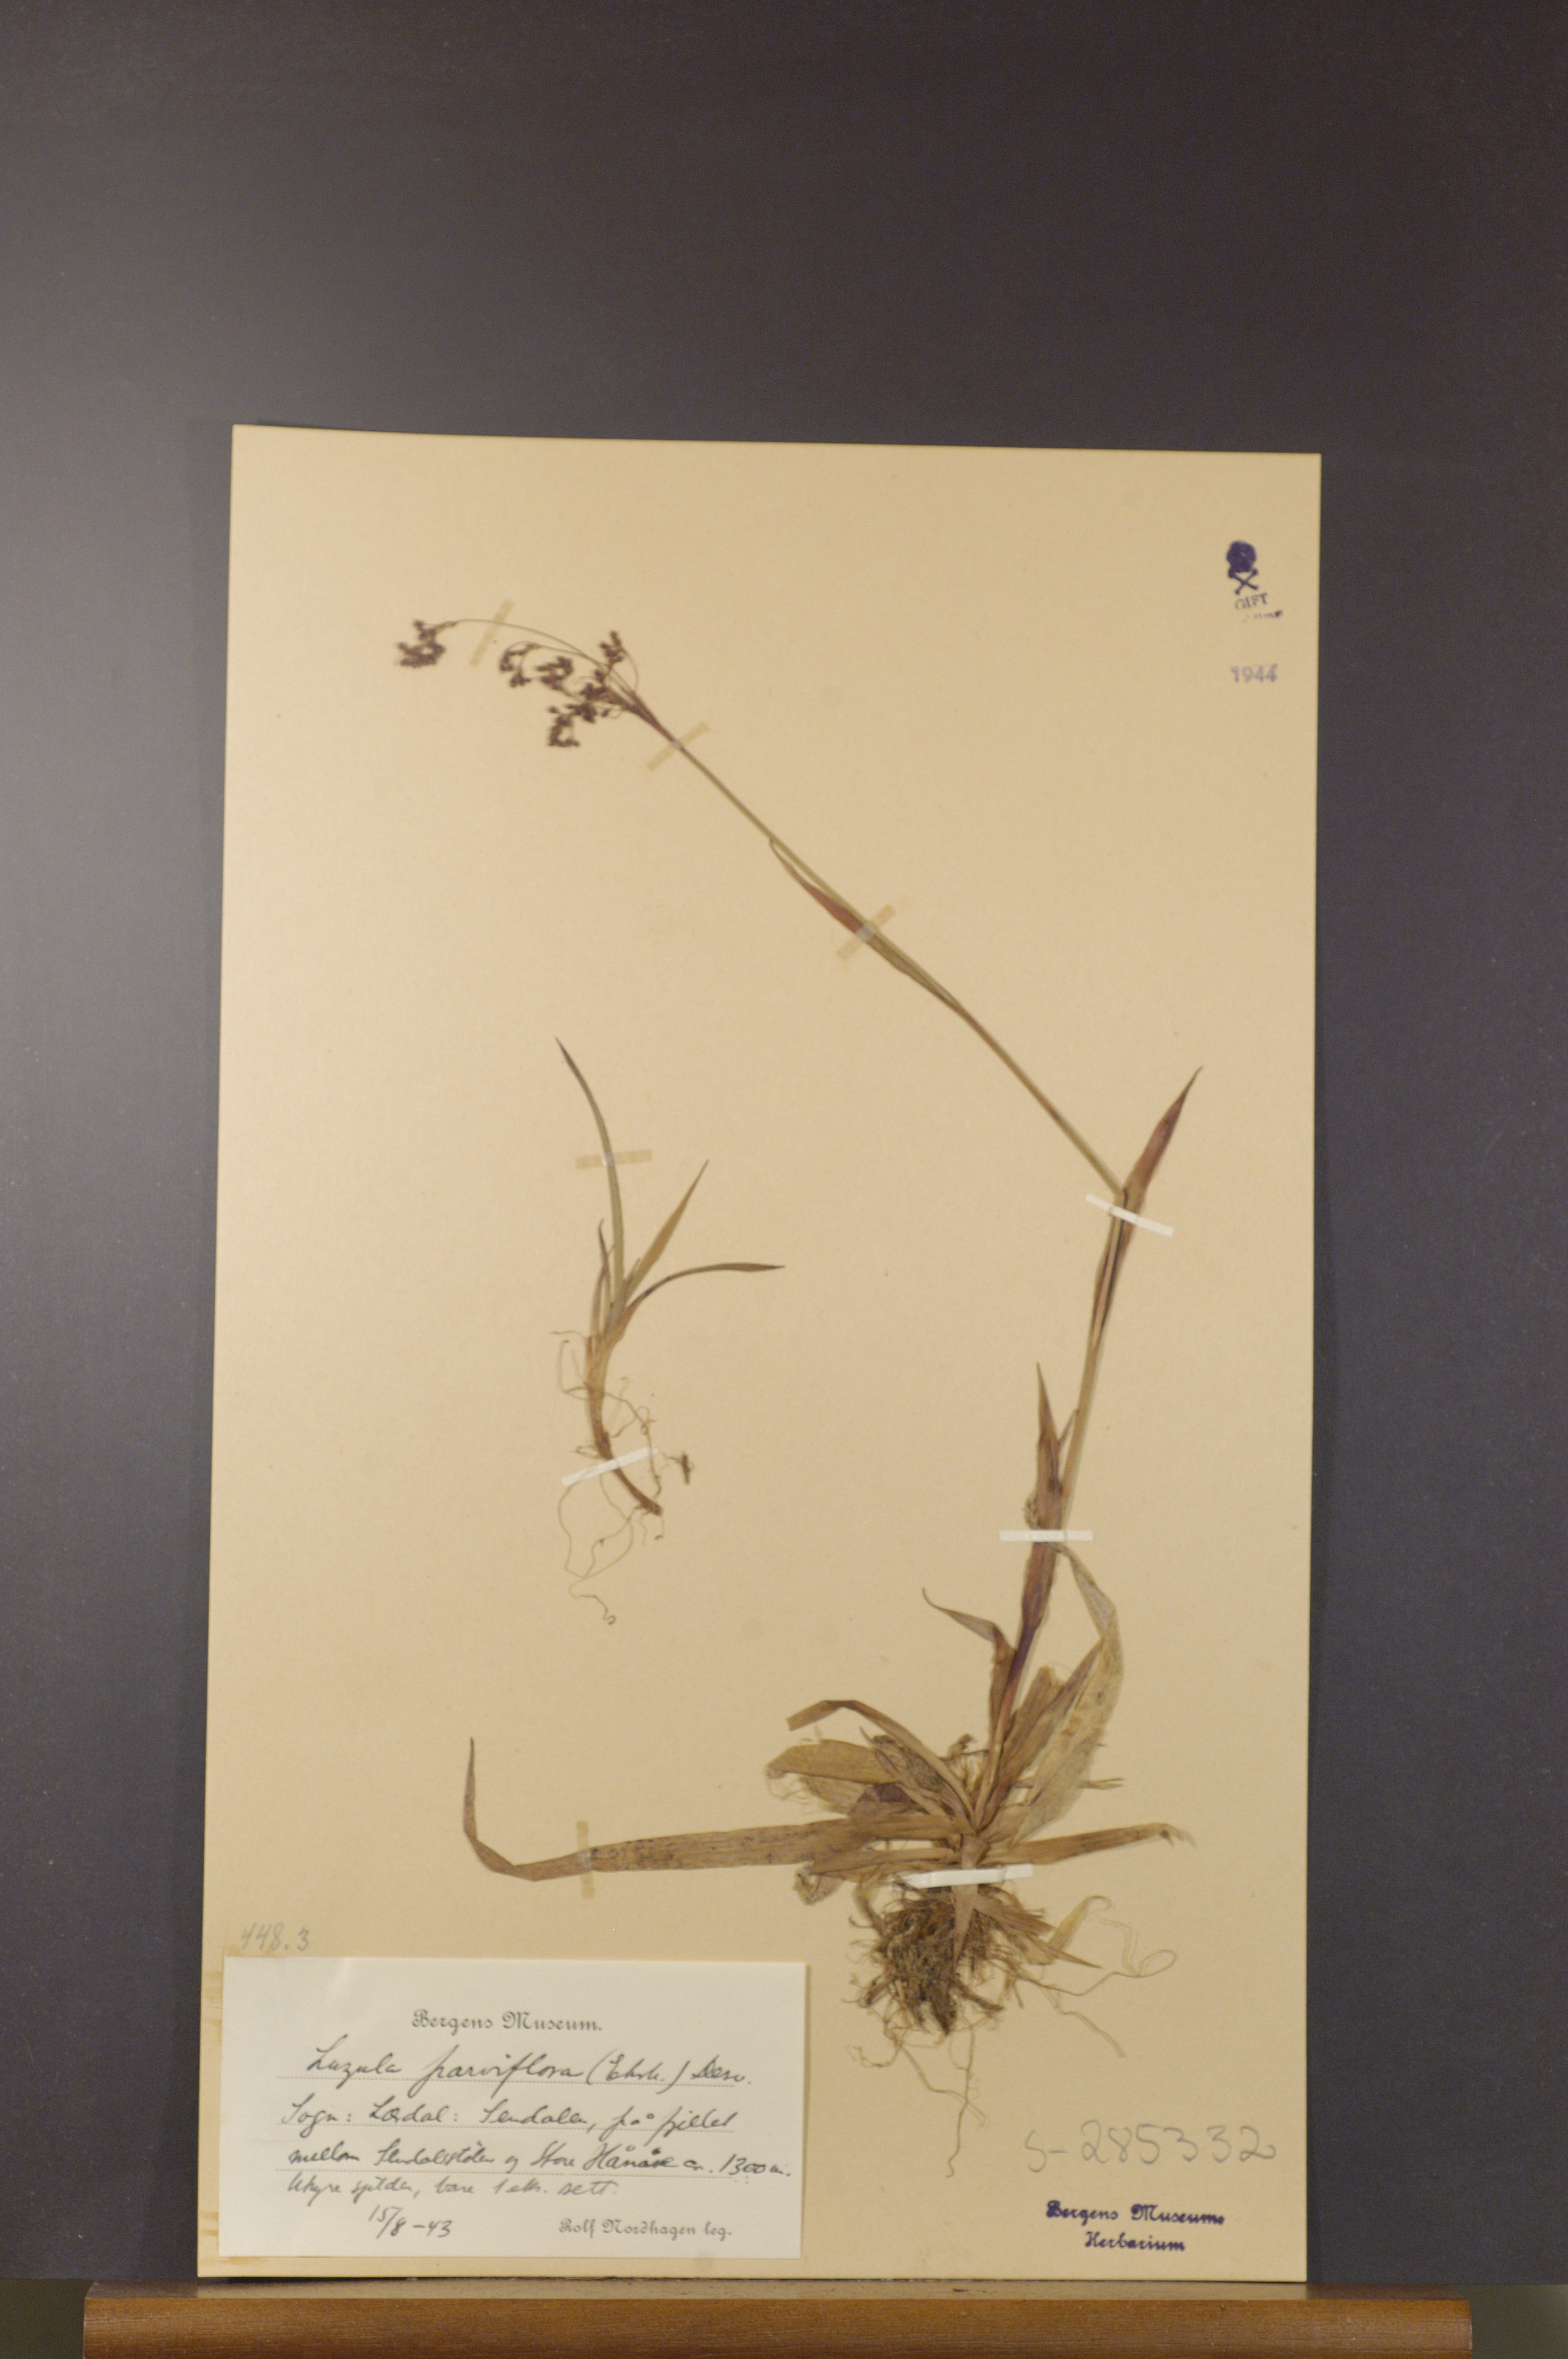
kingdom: Plantae
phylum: Tracheophyta
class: Liliopsida
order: Poales
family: Juncaceae
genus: Luzula
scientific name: Luzula parviflora
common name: Millet woodrush
